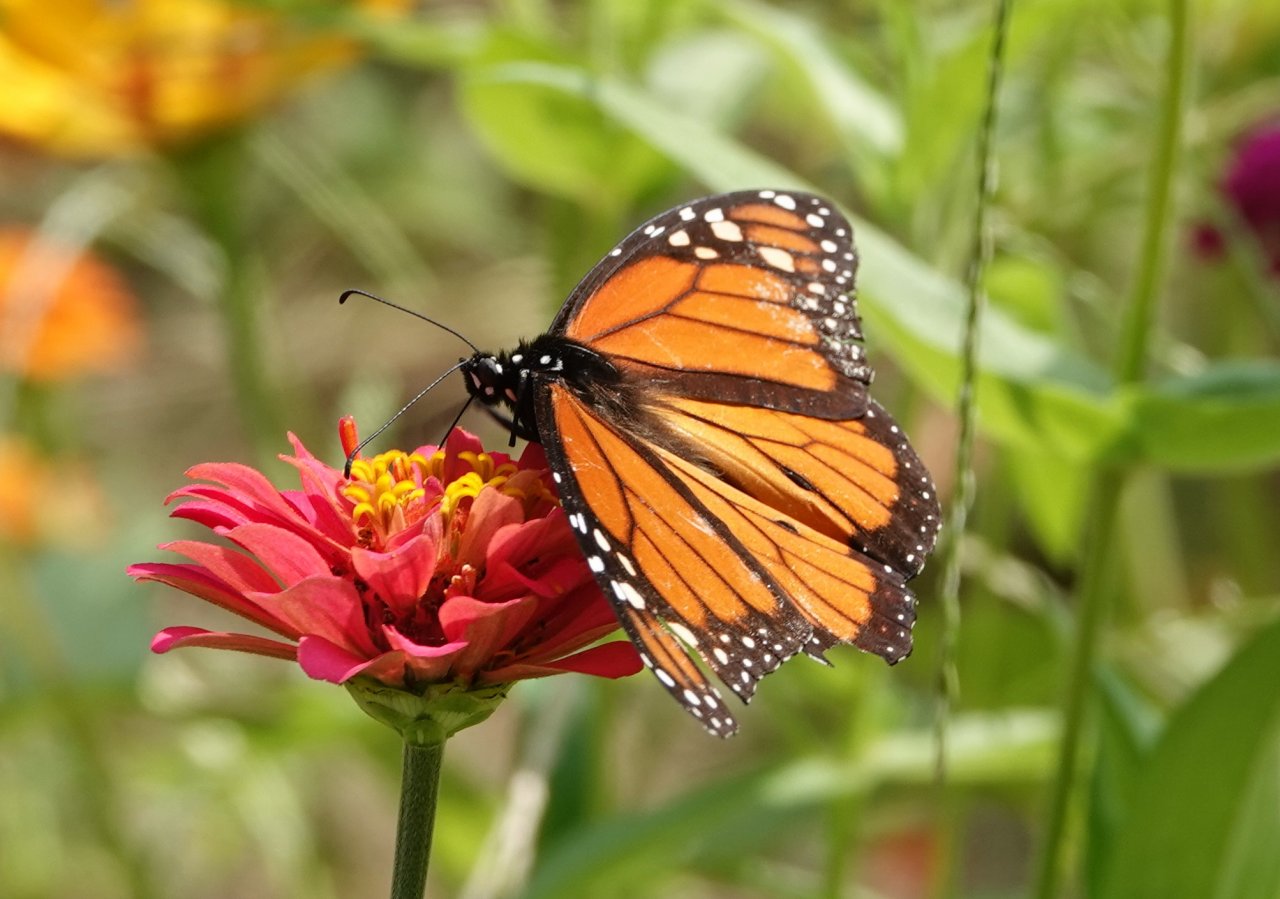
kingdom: Animalia
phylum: Arthropoda
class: Insecta
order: Lepidoptera
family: Nymphalidae
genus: Danaus
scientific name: Danaus plexippus
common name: Monarch
